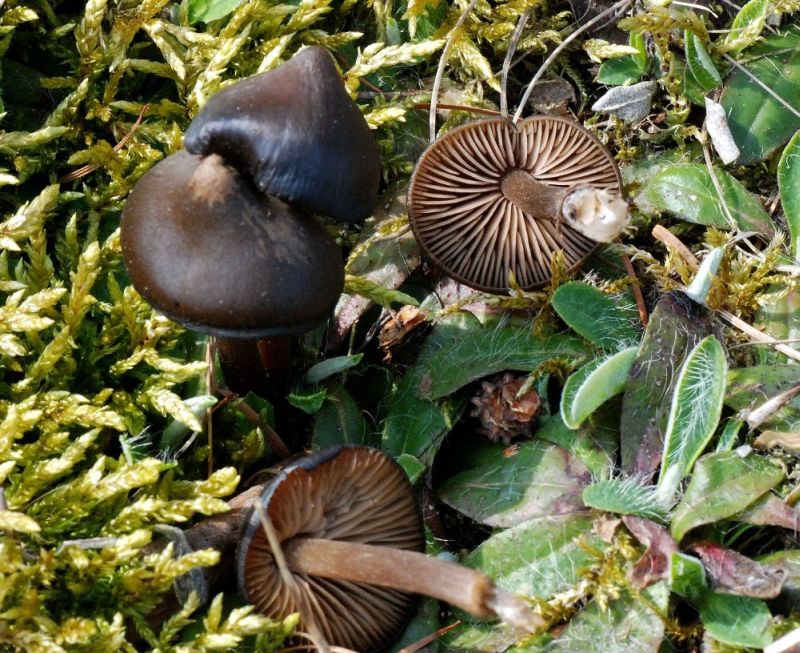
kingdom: Fungi
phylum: Basidiomycota
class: Agaricomycetes
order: Agaricales
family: Entolomataceae
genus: Entoloma
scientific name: Entoloma vernum
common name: vår-rødblad
